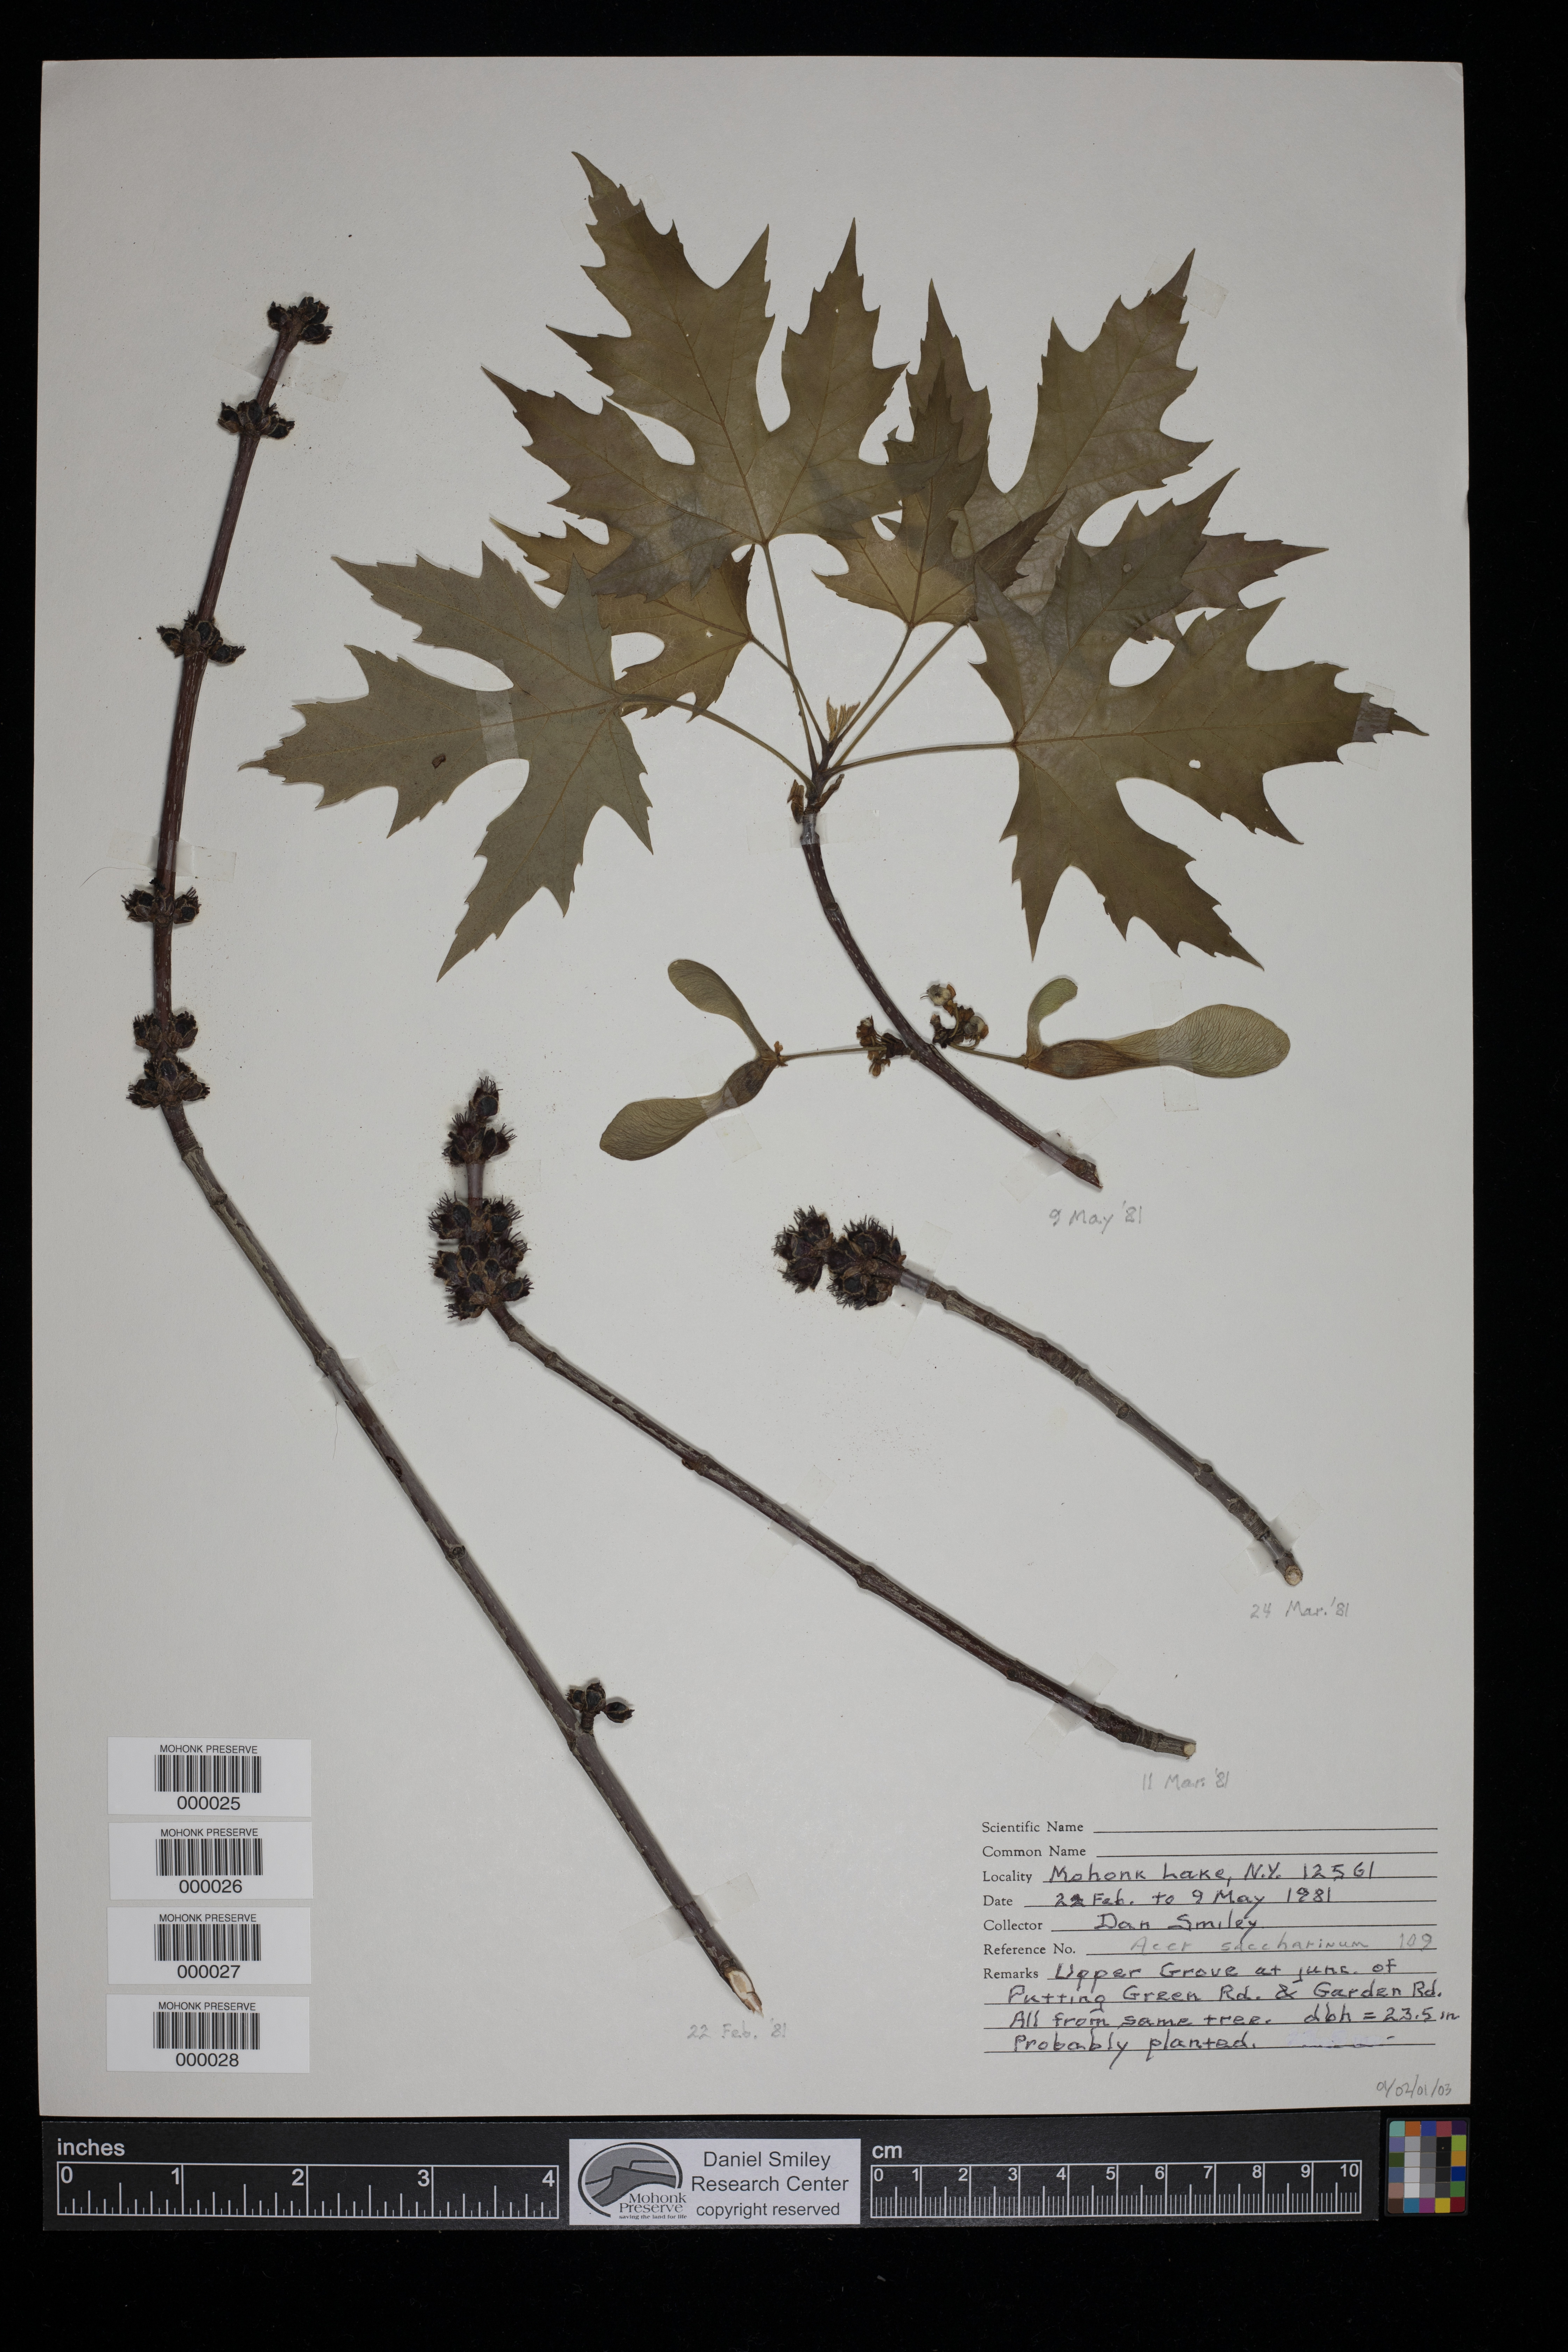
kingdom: Plantae
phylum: Tracheophyta
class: Magnoliopsida
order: Sapindales
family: Sapindaceae
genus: Acer
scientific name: Acer saccharinum
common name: Silver maple
